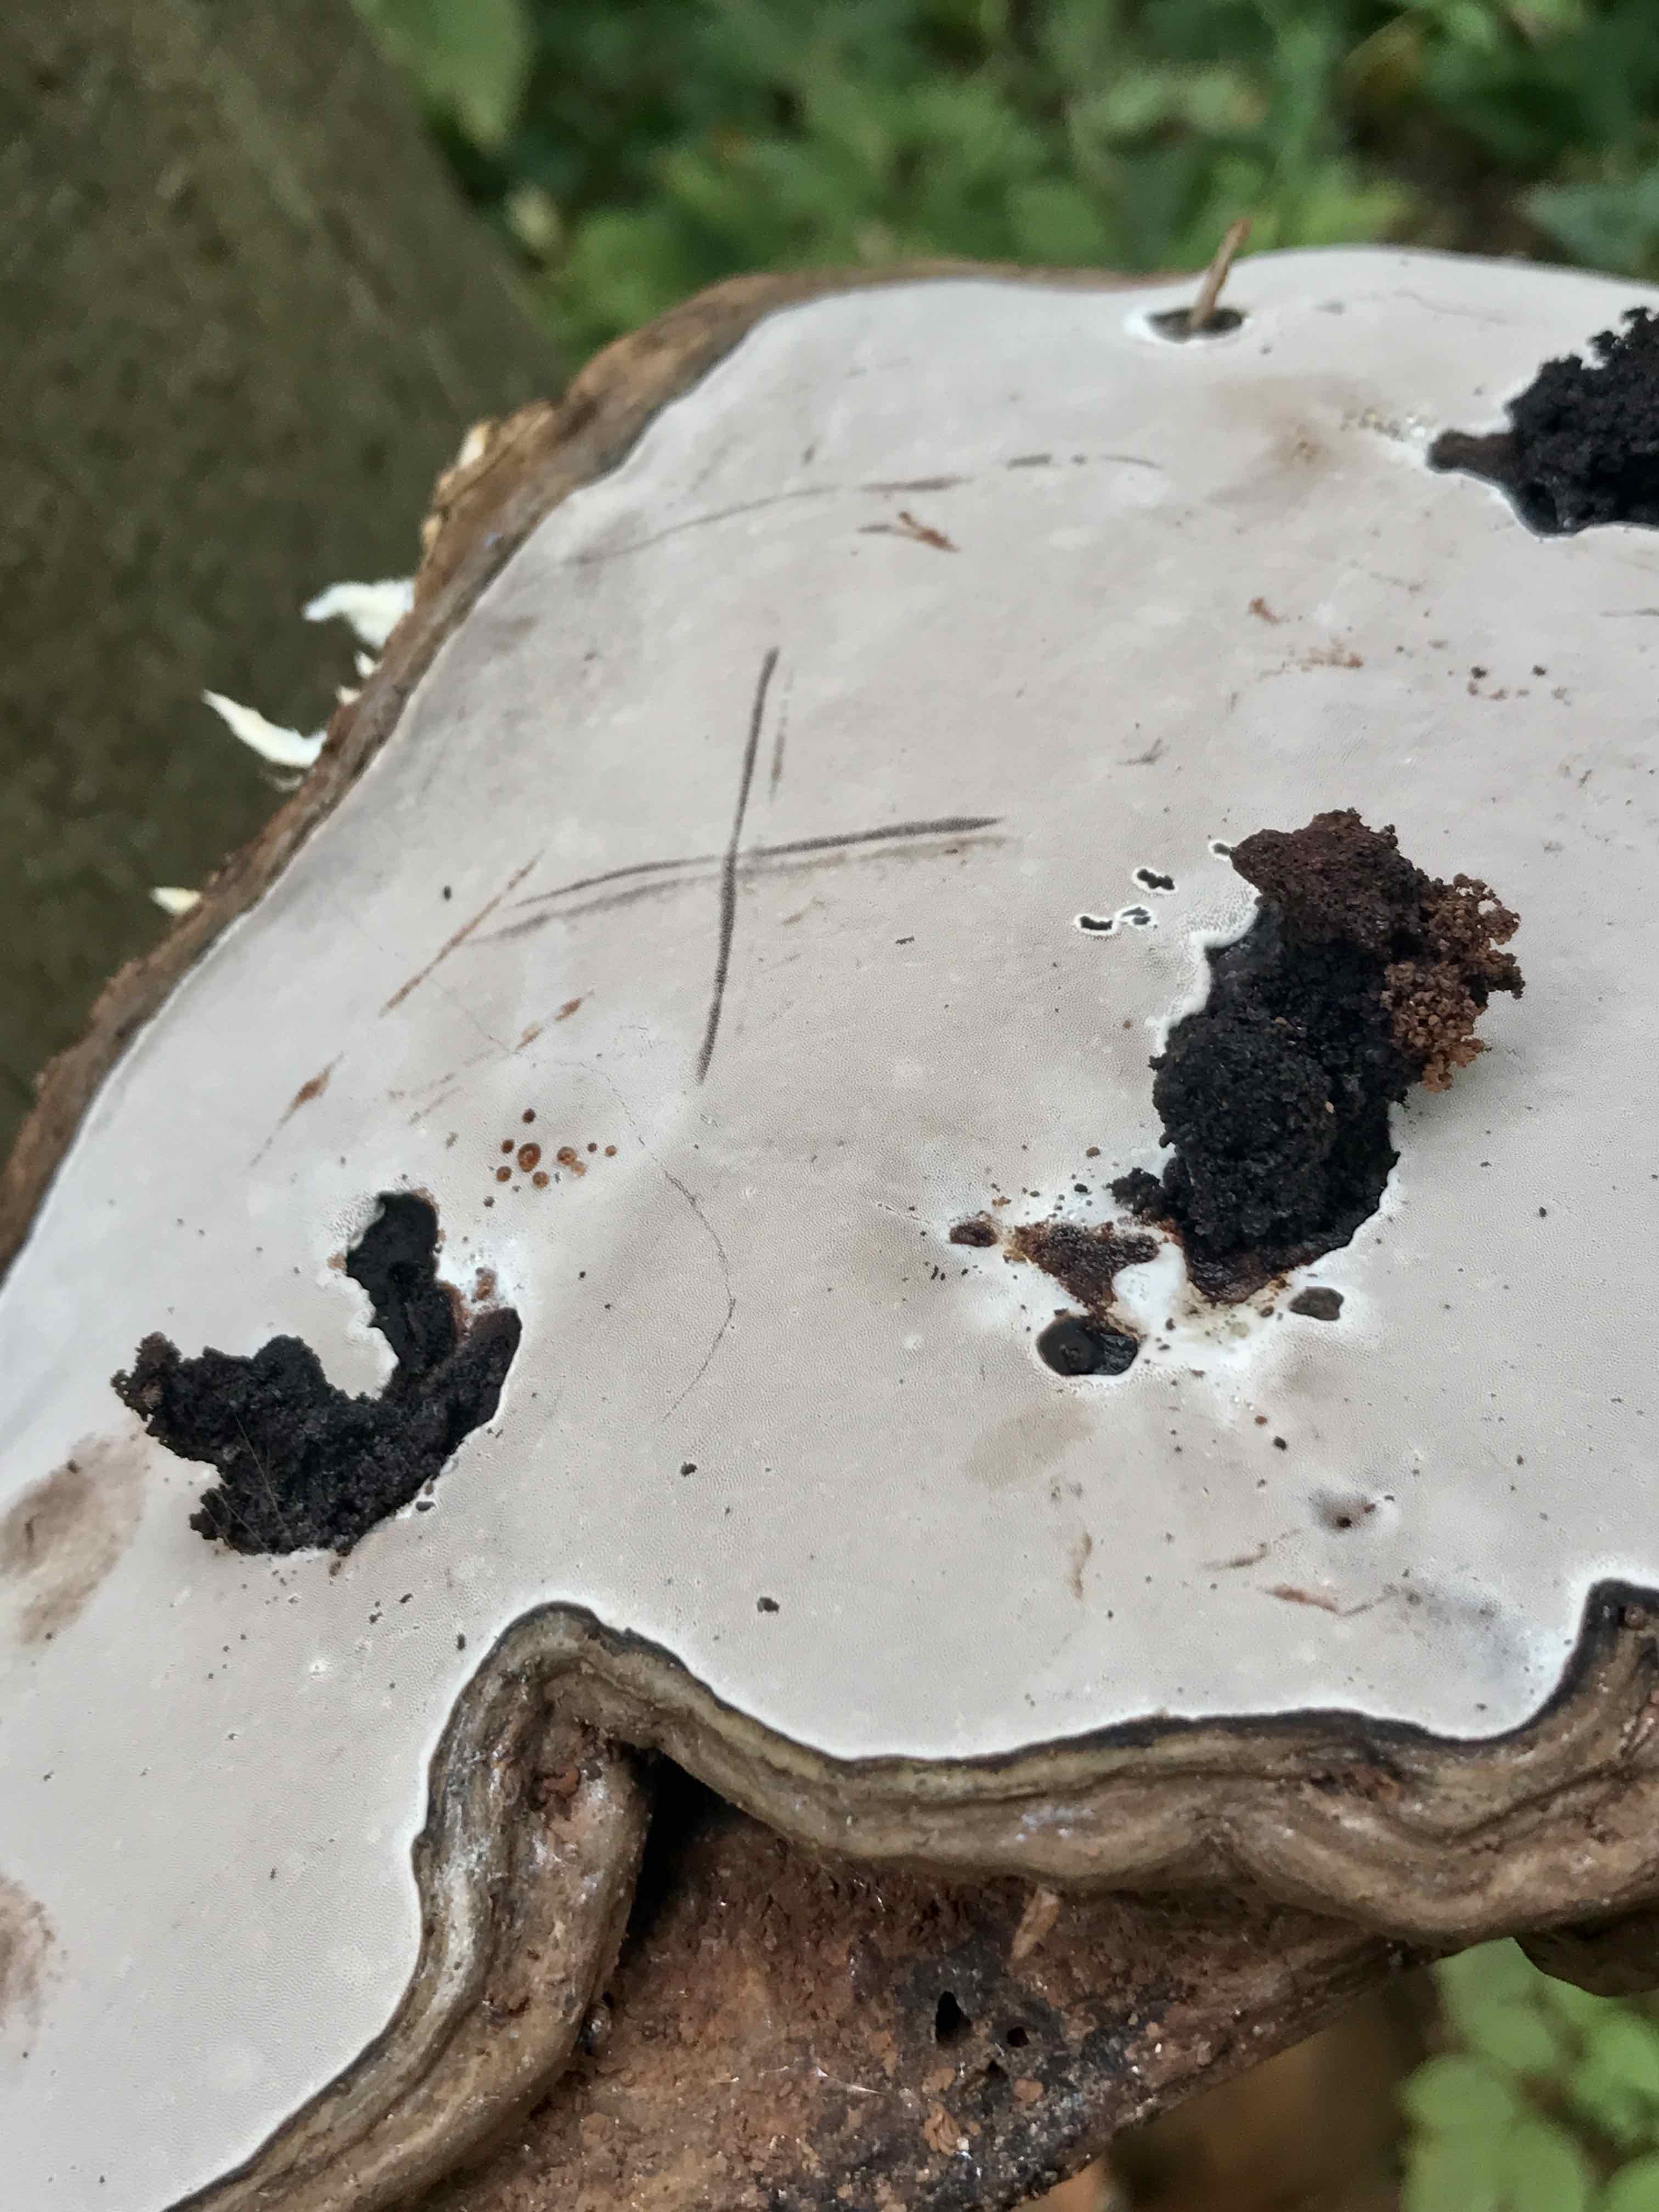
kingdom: Fungi
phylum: Basidiomycota
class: Agaricomycetes
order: Polyporales
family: Polyporaceae
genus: Ganoderma
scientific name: Ganoderma applanatum
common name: flad lakporesvamp
